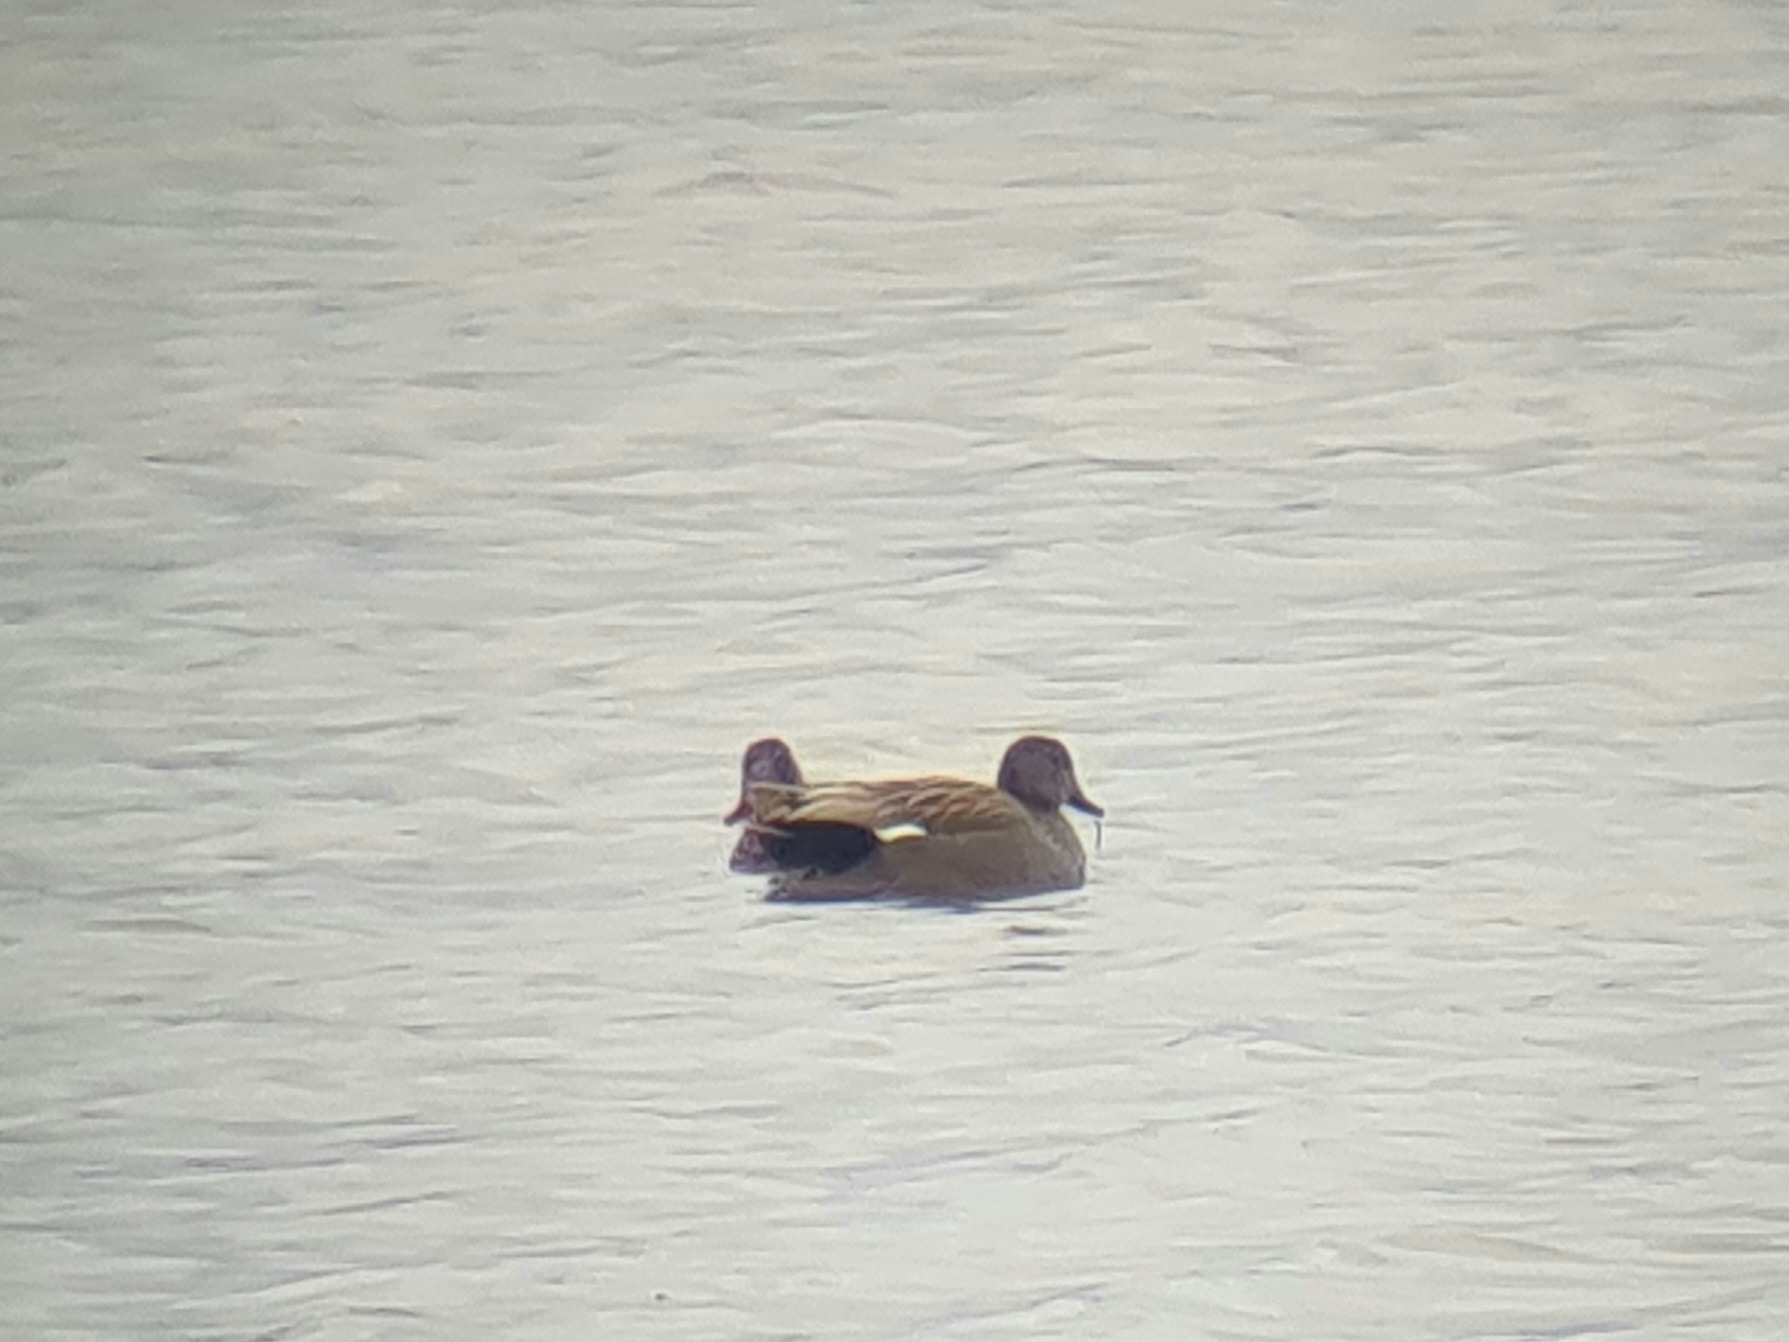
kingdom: Animalia
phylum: Chordata
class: Aves
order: Anseriformes
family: Anatidae
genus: Mareca
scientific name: Mareca strepera
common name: Knarand
